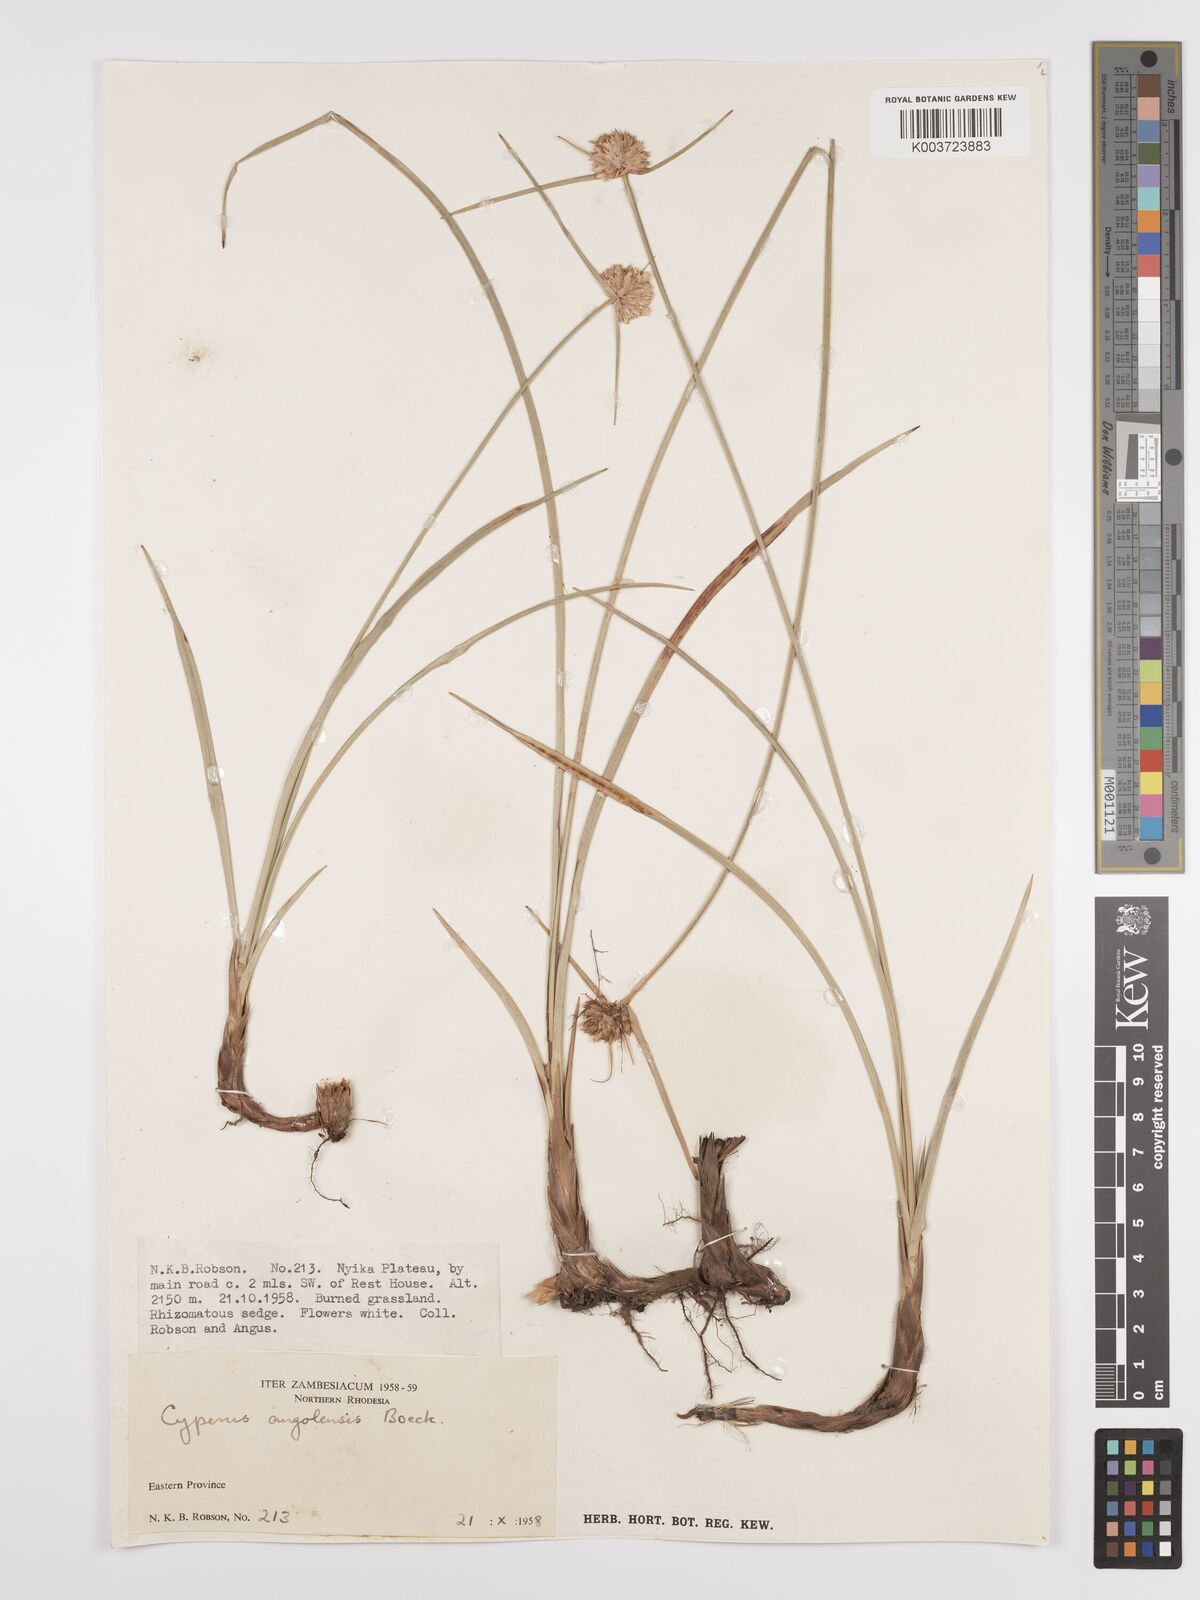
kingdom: Plantae
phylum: Tracheophyta
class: Liliopsida
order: Poales
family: Cyperaceae
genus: Cyperus
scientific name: Cyperus angolensis
